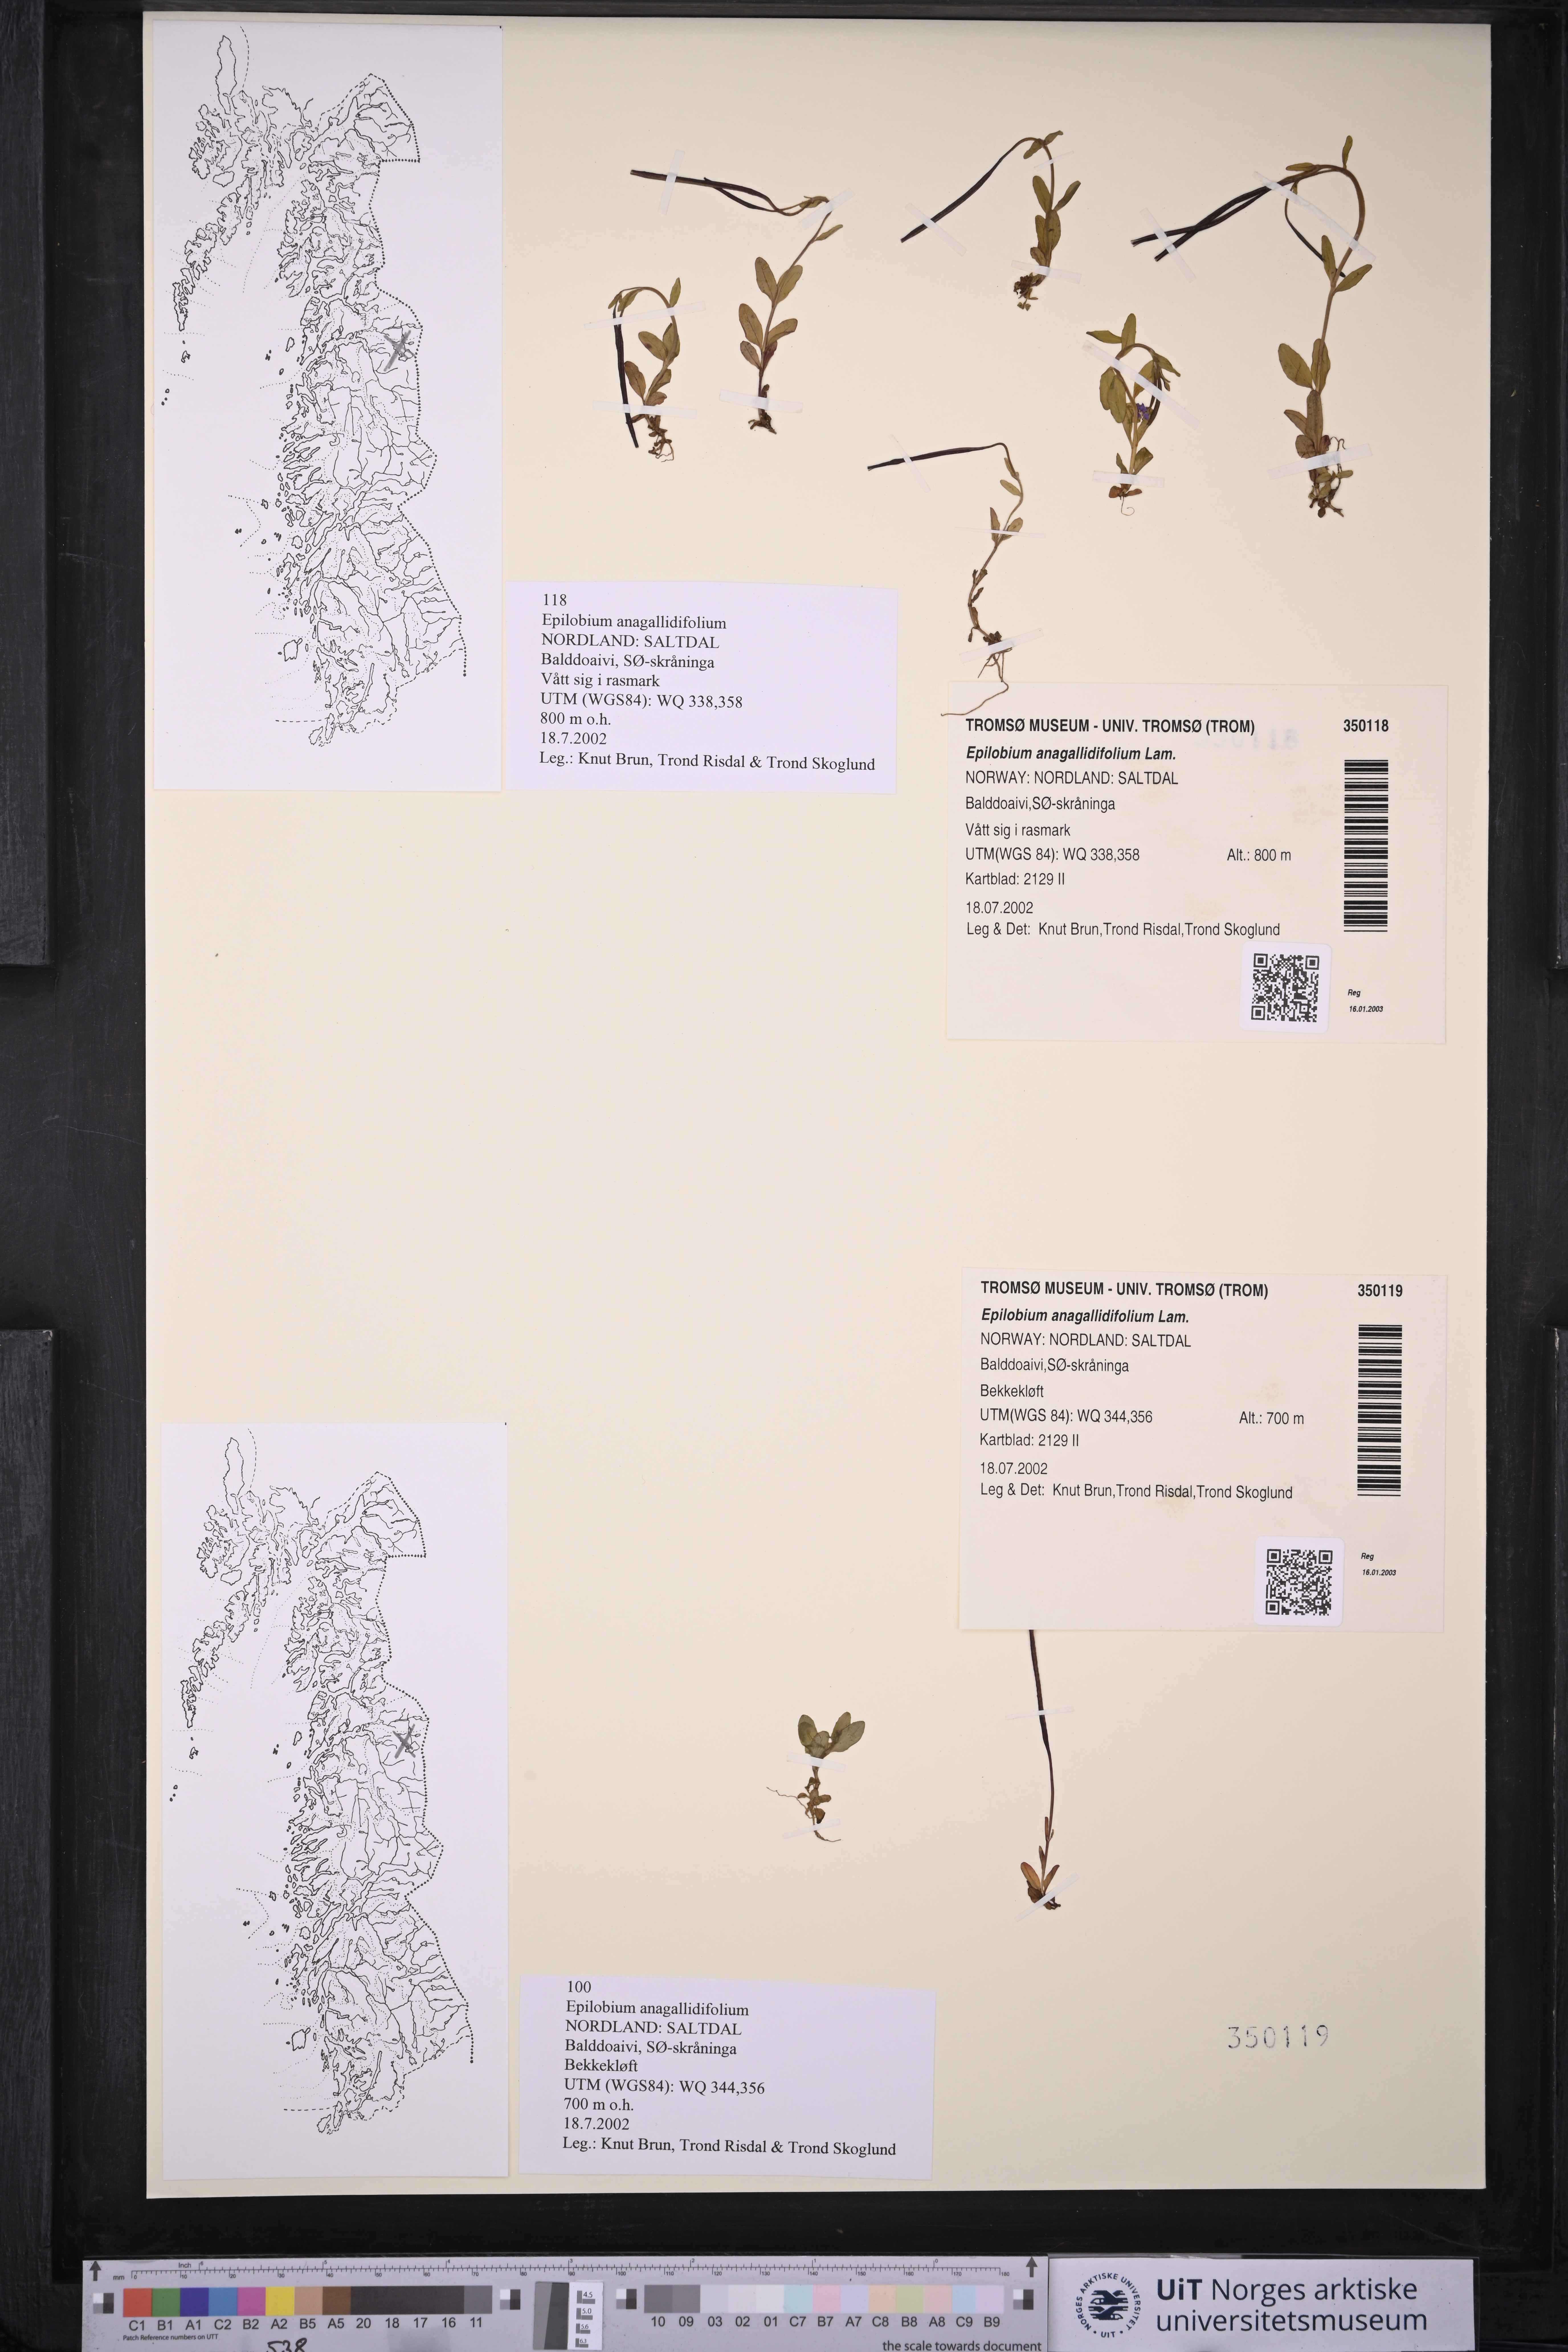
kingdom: Plantae
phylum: Tracheophyta
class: Magnoliopsida
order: Myrtales
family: Onagraceae
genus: Epilobium
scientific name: Epilobium anagallidifolium
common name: Alpine willowherb
